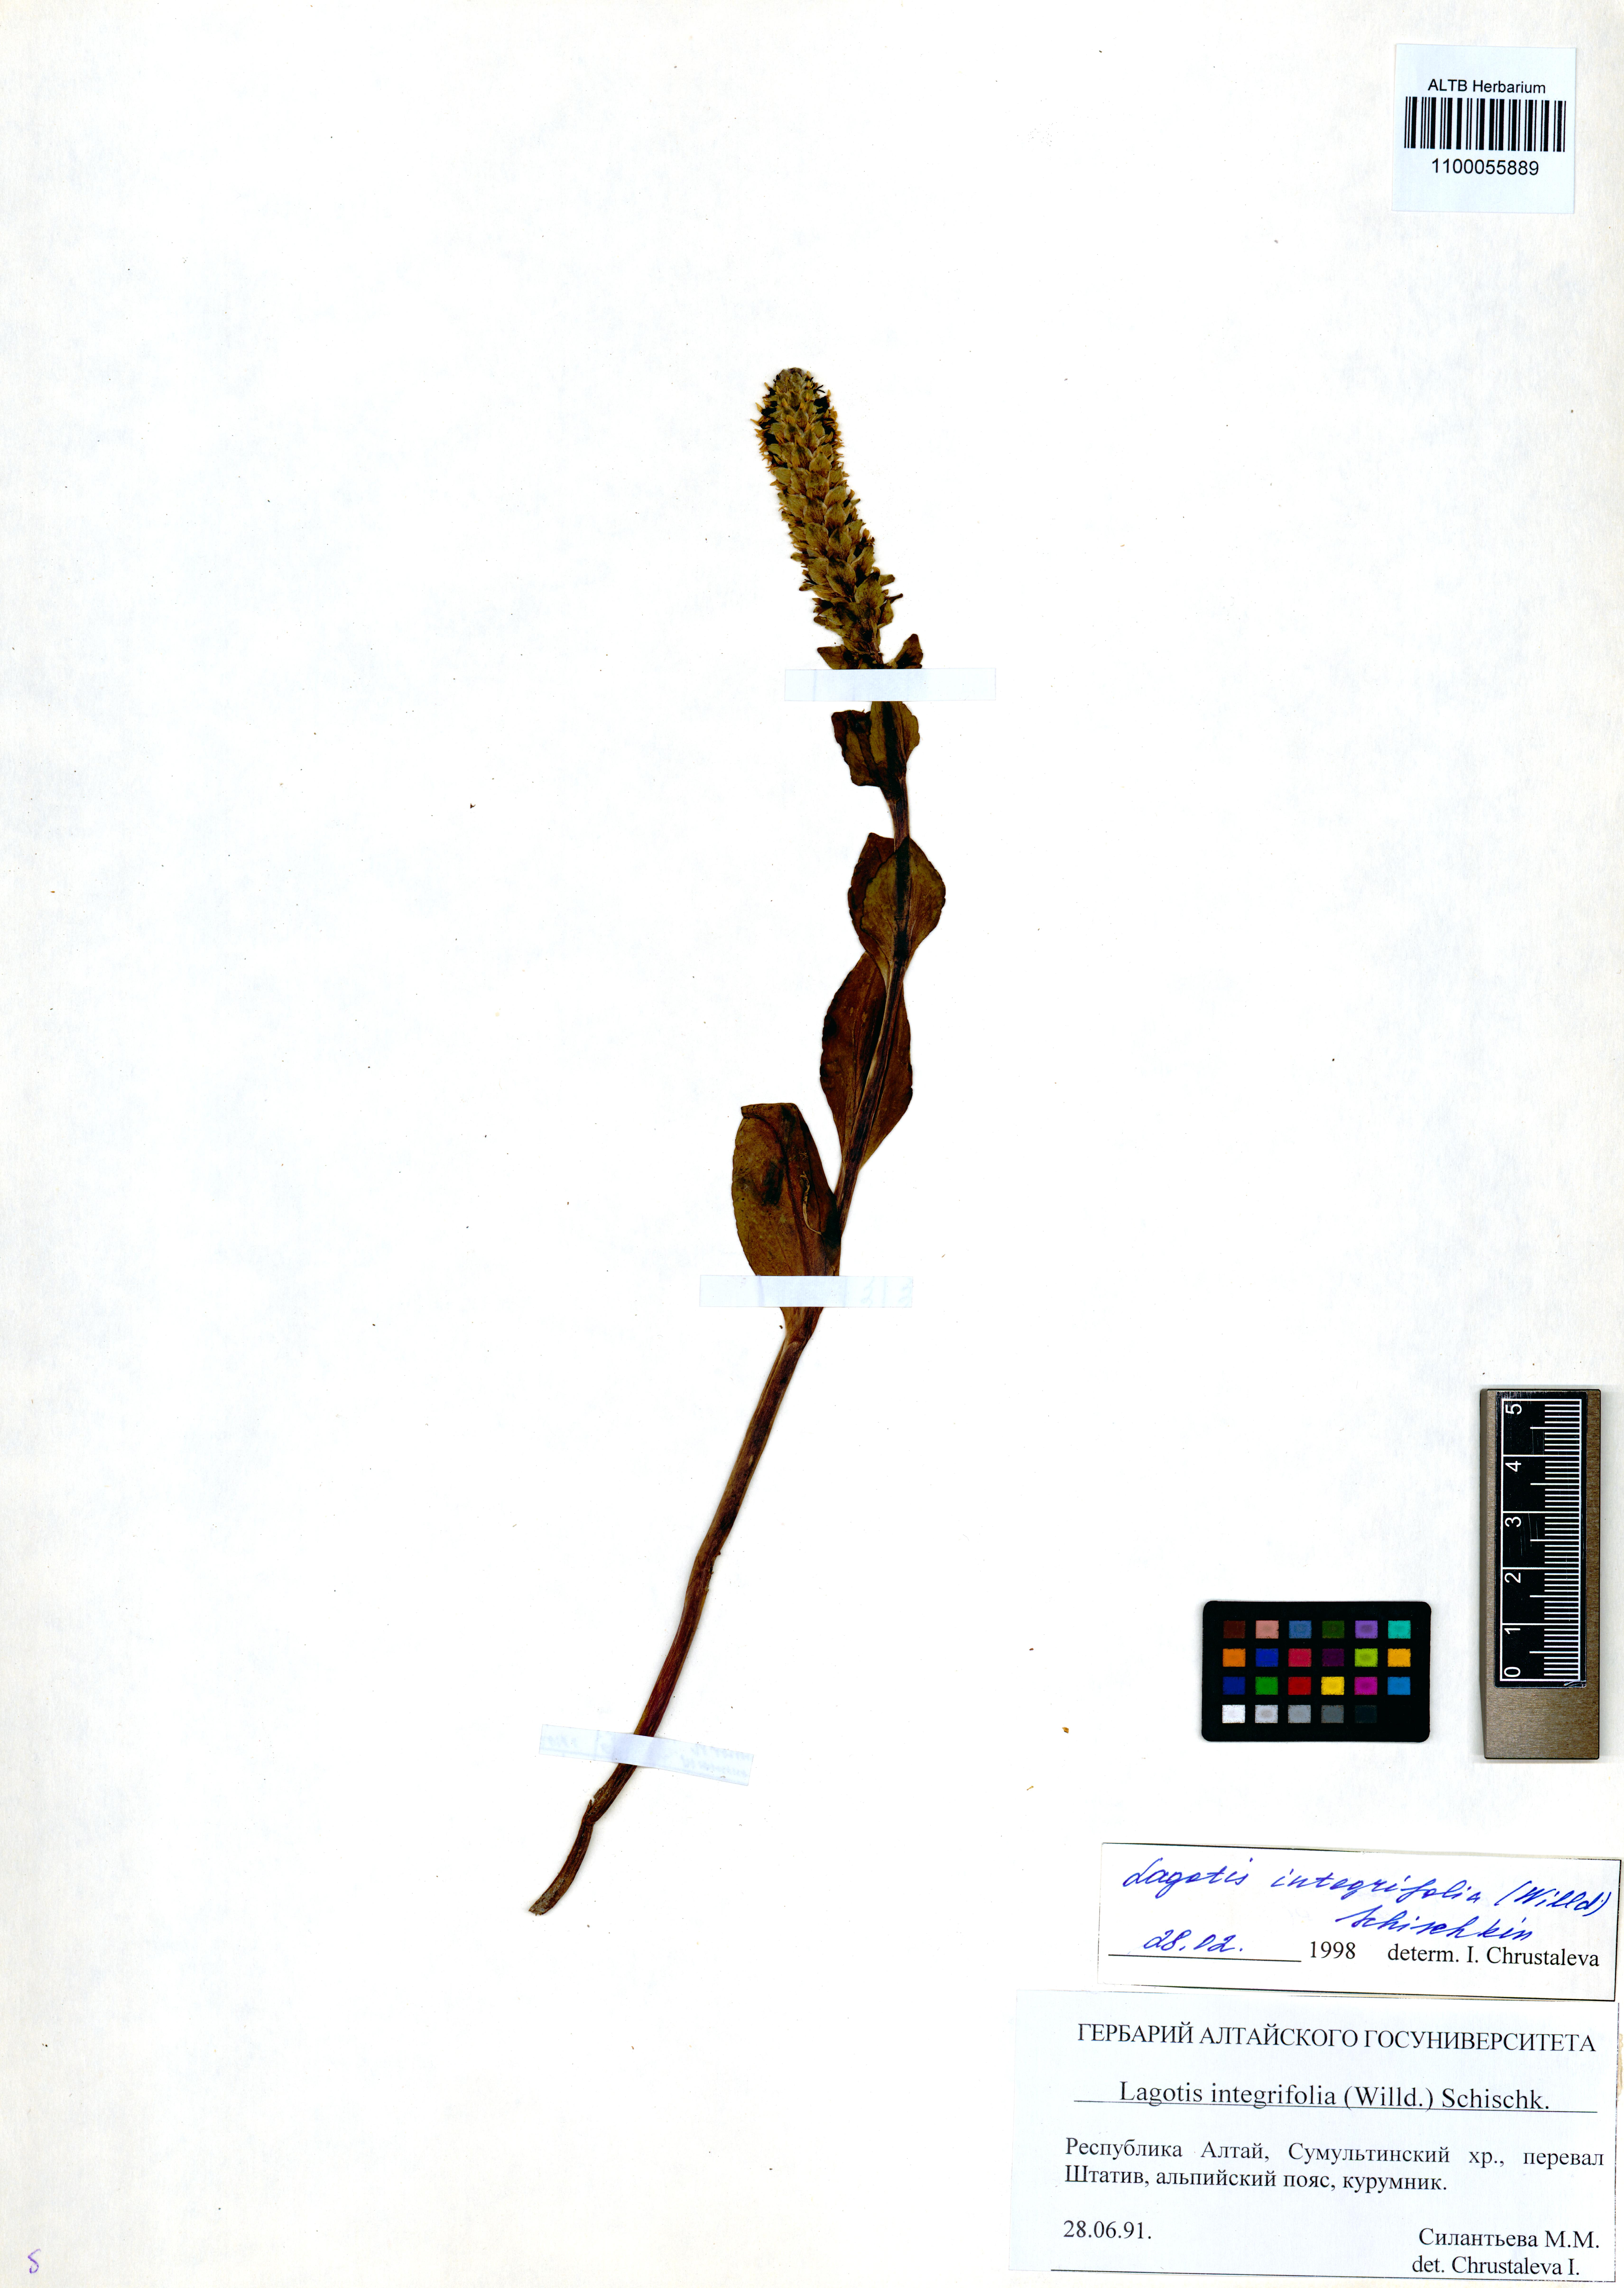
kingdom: Plantae
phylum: Tracheophyta
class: Magnoliopsida
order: Lamiales
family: Plantaginaceae
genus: Lagotis
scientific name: Lagotis integrifolia
